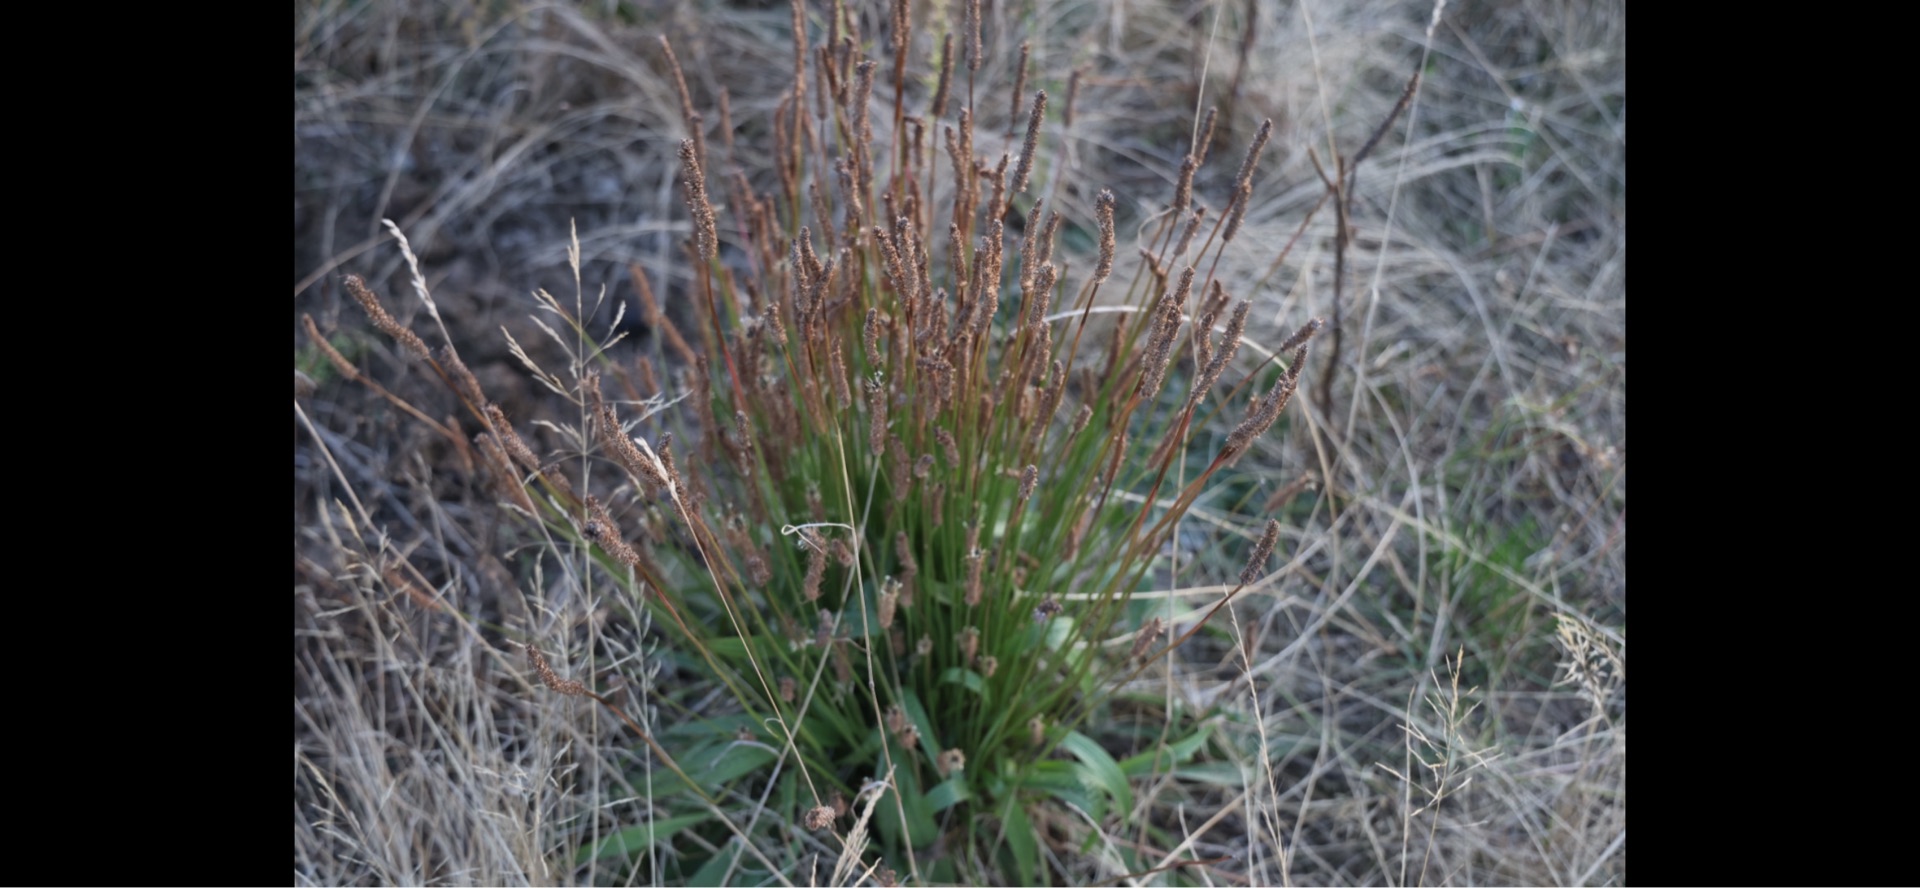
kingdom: Plantae
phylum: Tracheophyta
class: Magnoliopsida
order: Lamiales
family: Plantaginaceae
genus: Plantago
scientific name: Plantago lanceolata
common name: Lancet-vejbred
